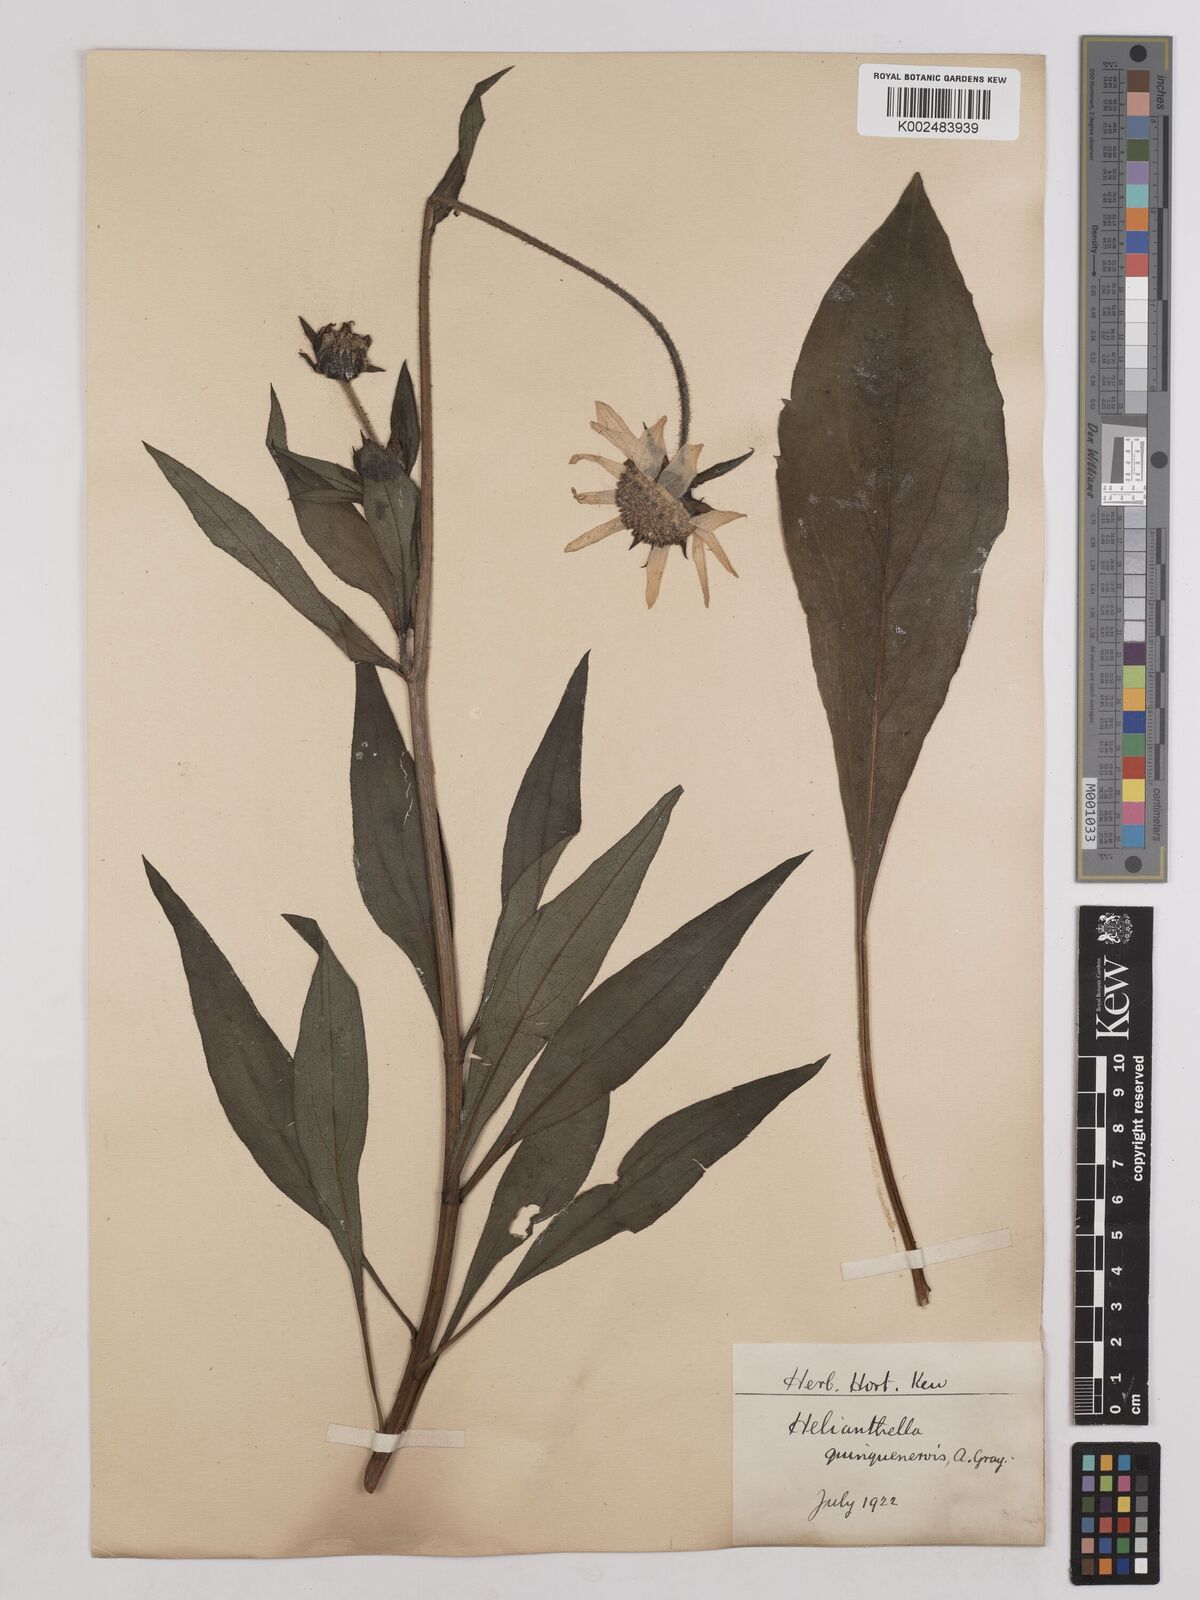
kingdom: Plantae
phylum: Tracheophyta
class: Magnoliopsida
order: Asterales
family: Asteraceae
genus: Helianthella
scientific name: Helianthella quinquenervis
